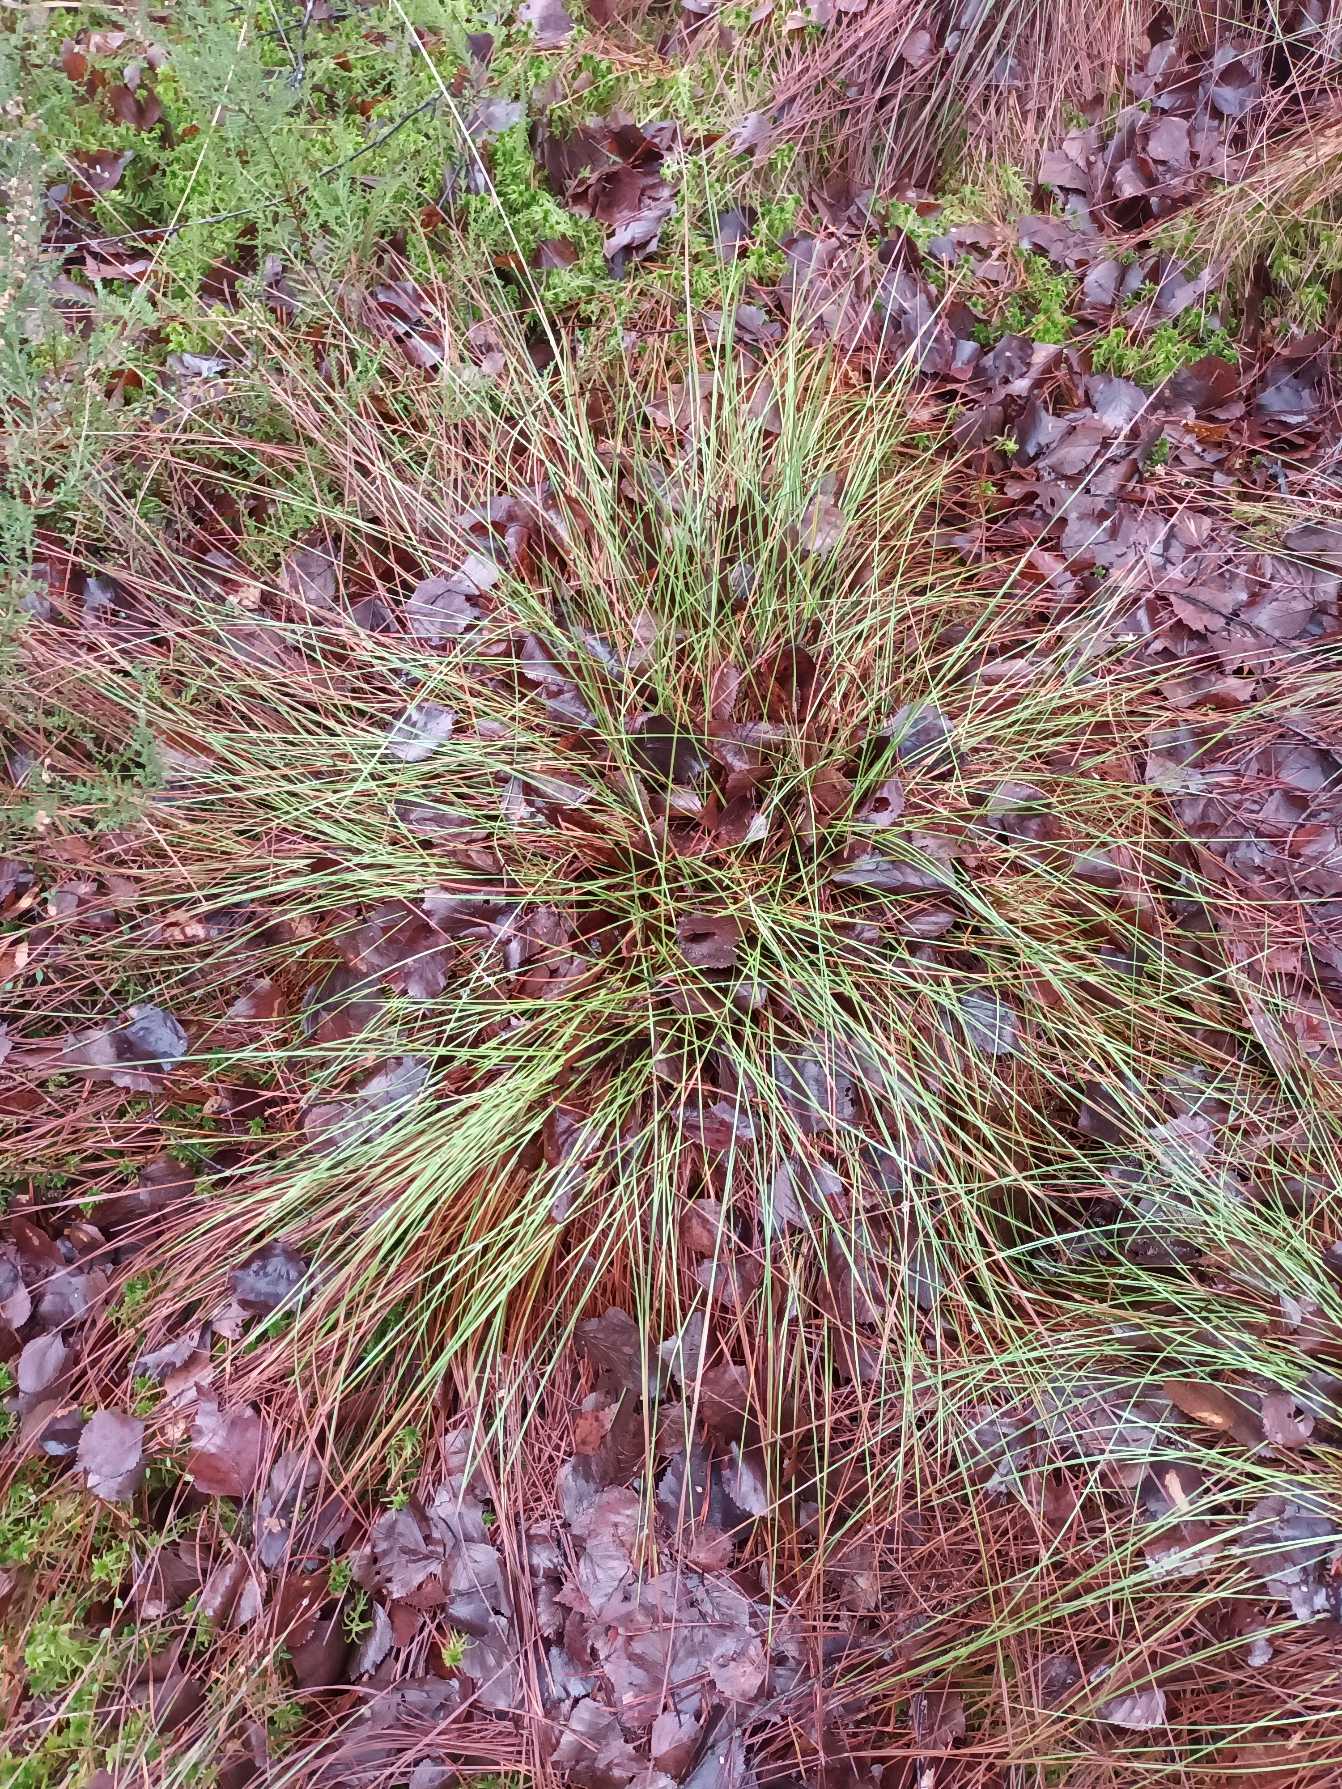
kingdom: Plantae
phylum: Tracheophyta
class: Liliopsida
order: Poales
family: Cyperaceae
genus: Eriophorum
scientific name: Eriophorum vaginatum
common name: Tue-kæruld
